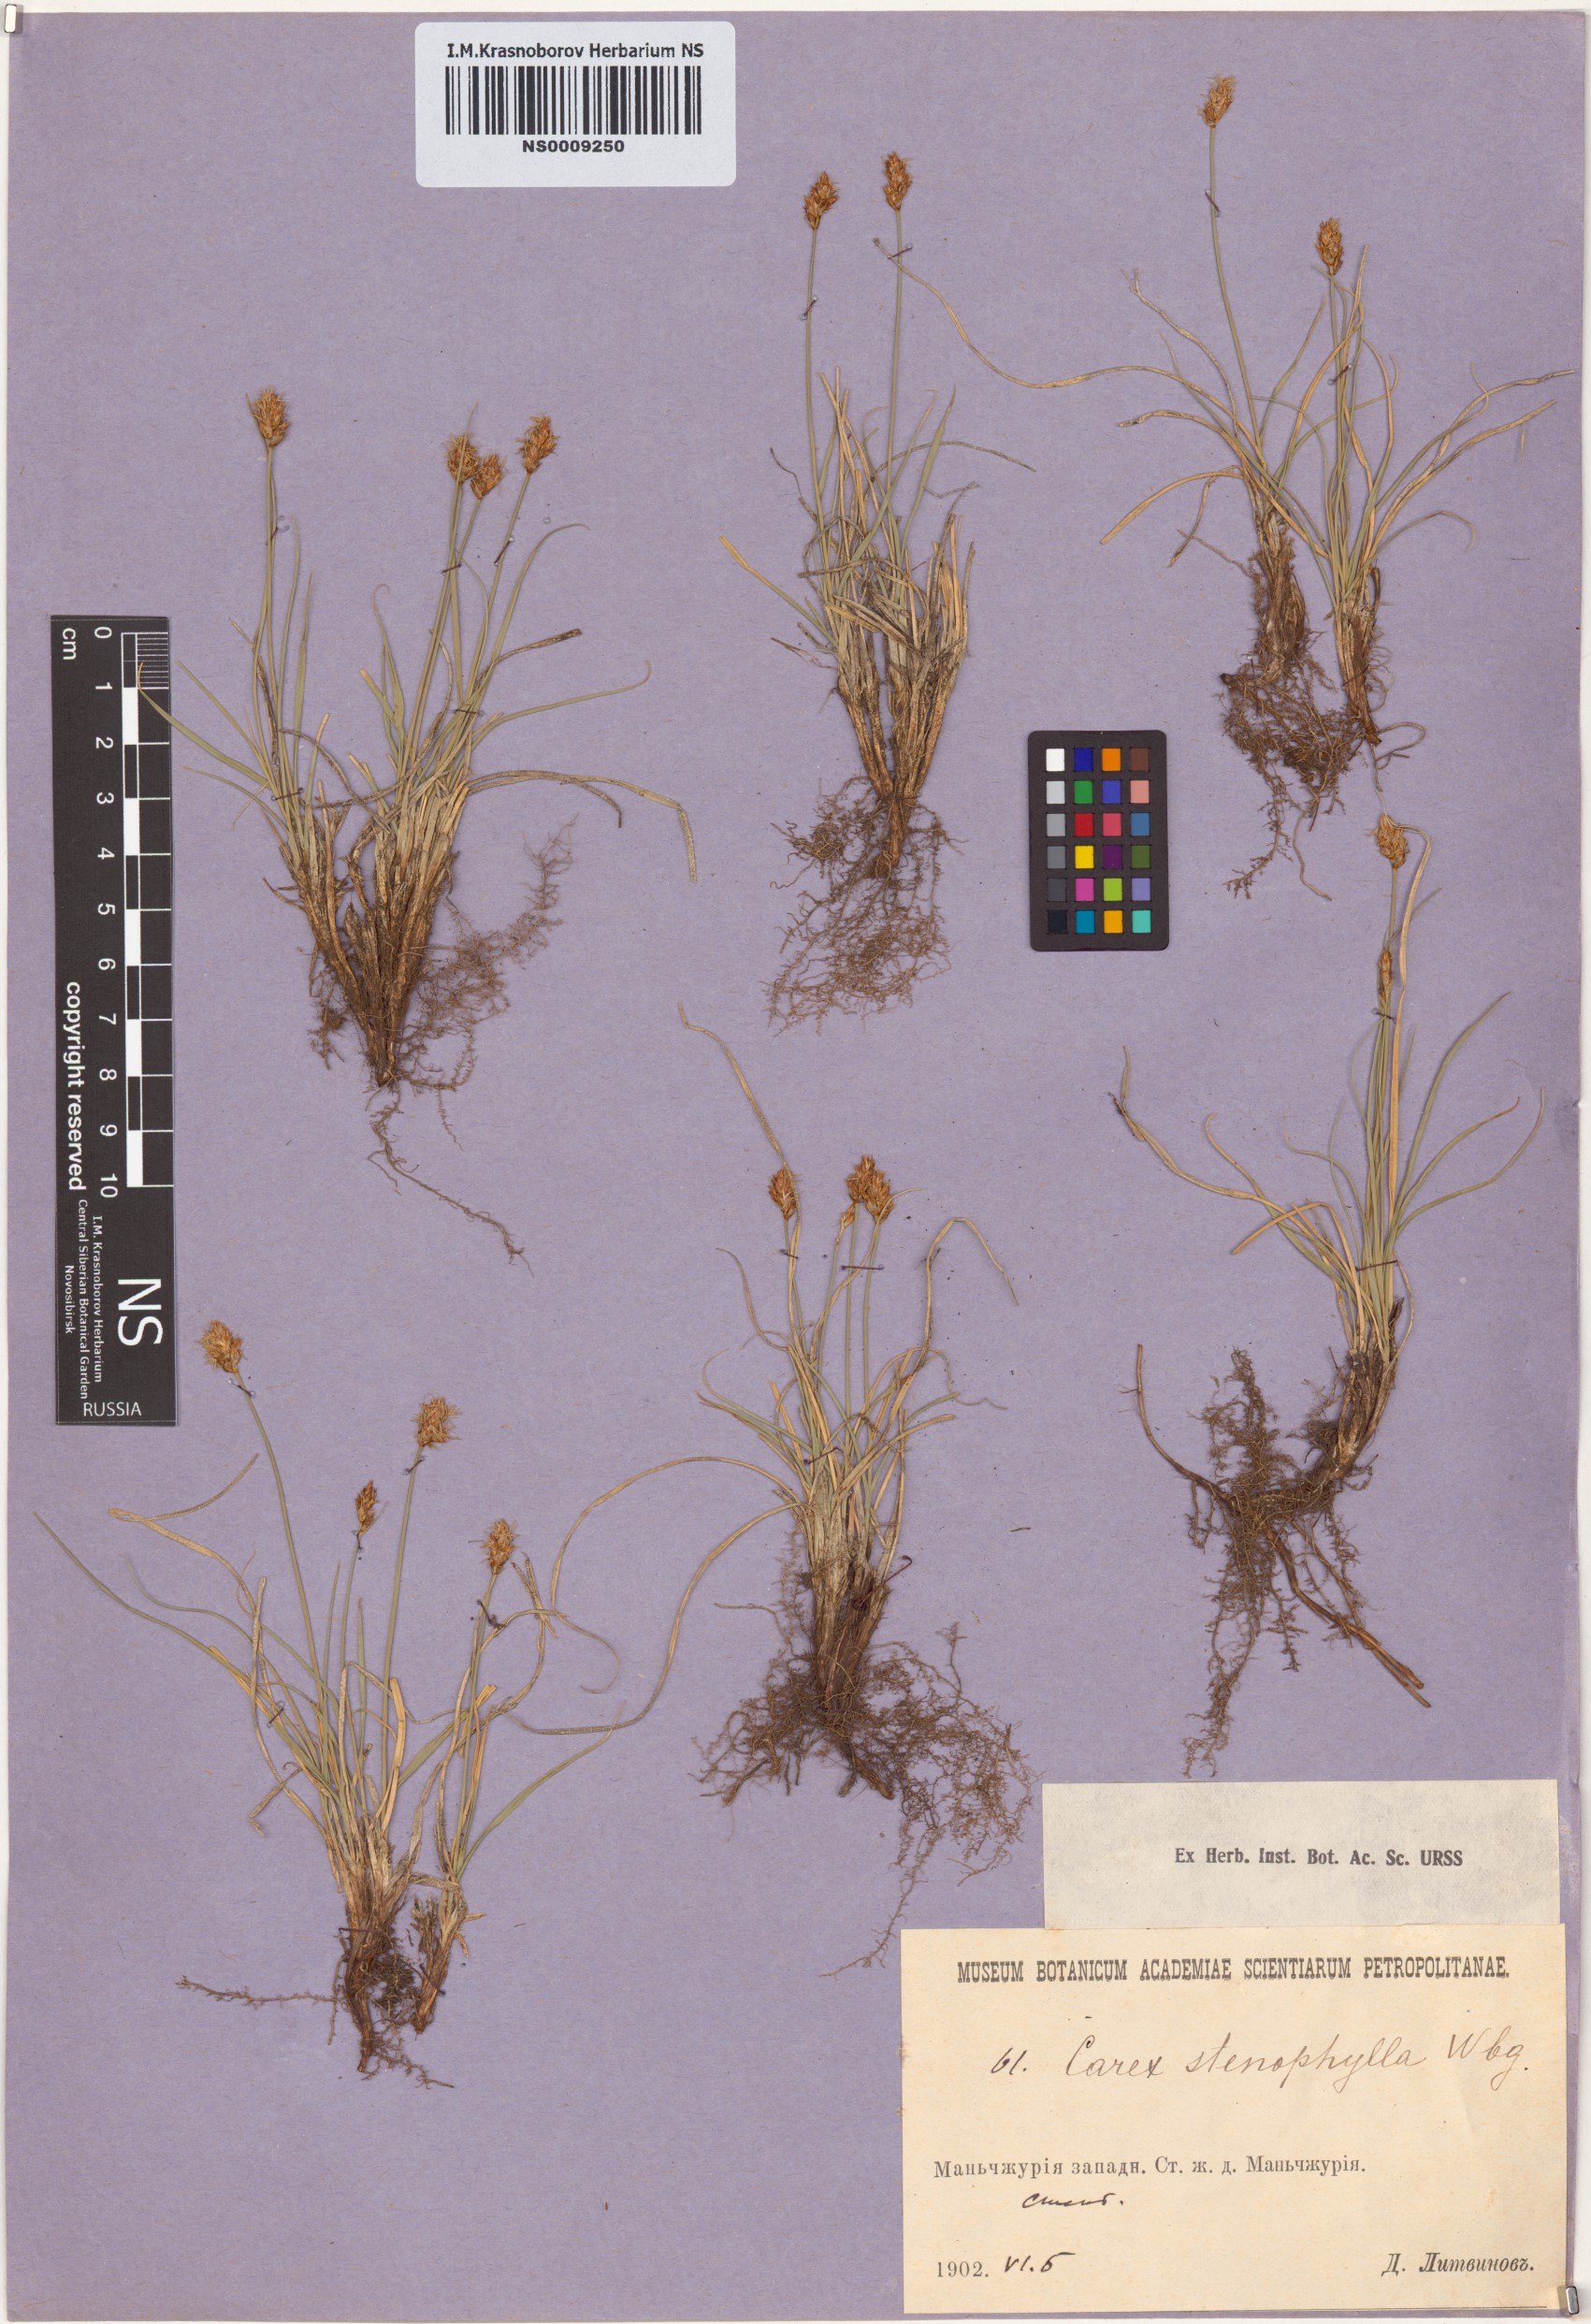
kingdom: Plantae
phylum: Tracheophyta
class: Liliopsida
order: Poales
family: Cyperaceae
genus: Carex
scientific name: Carex stenophylla
